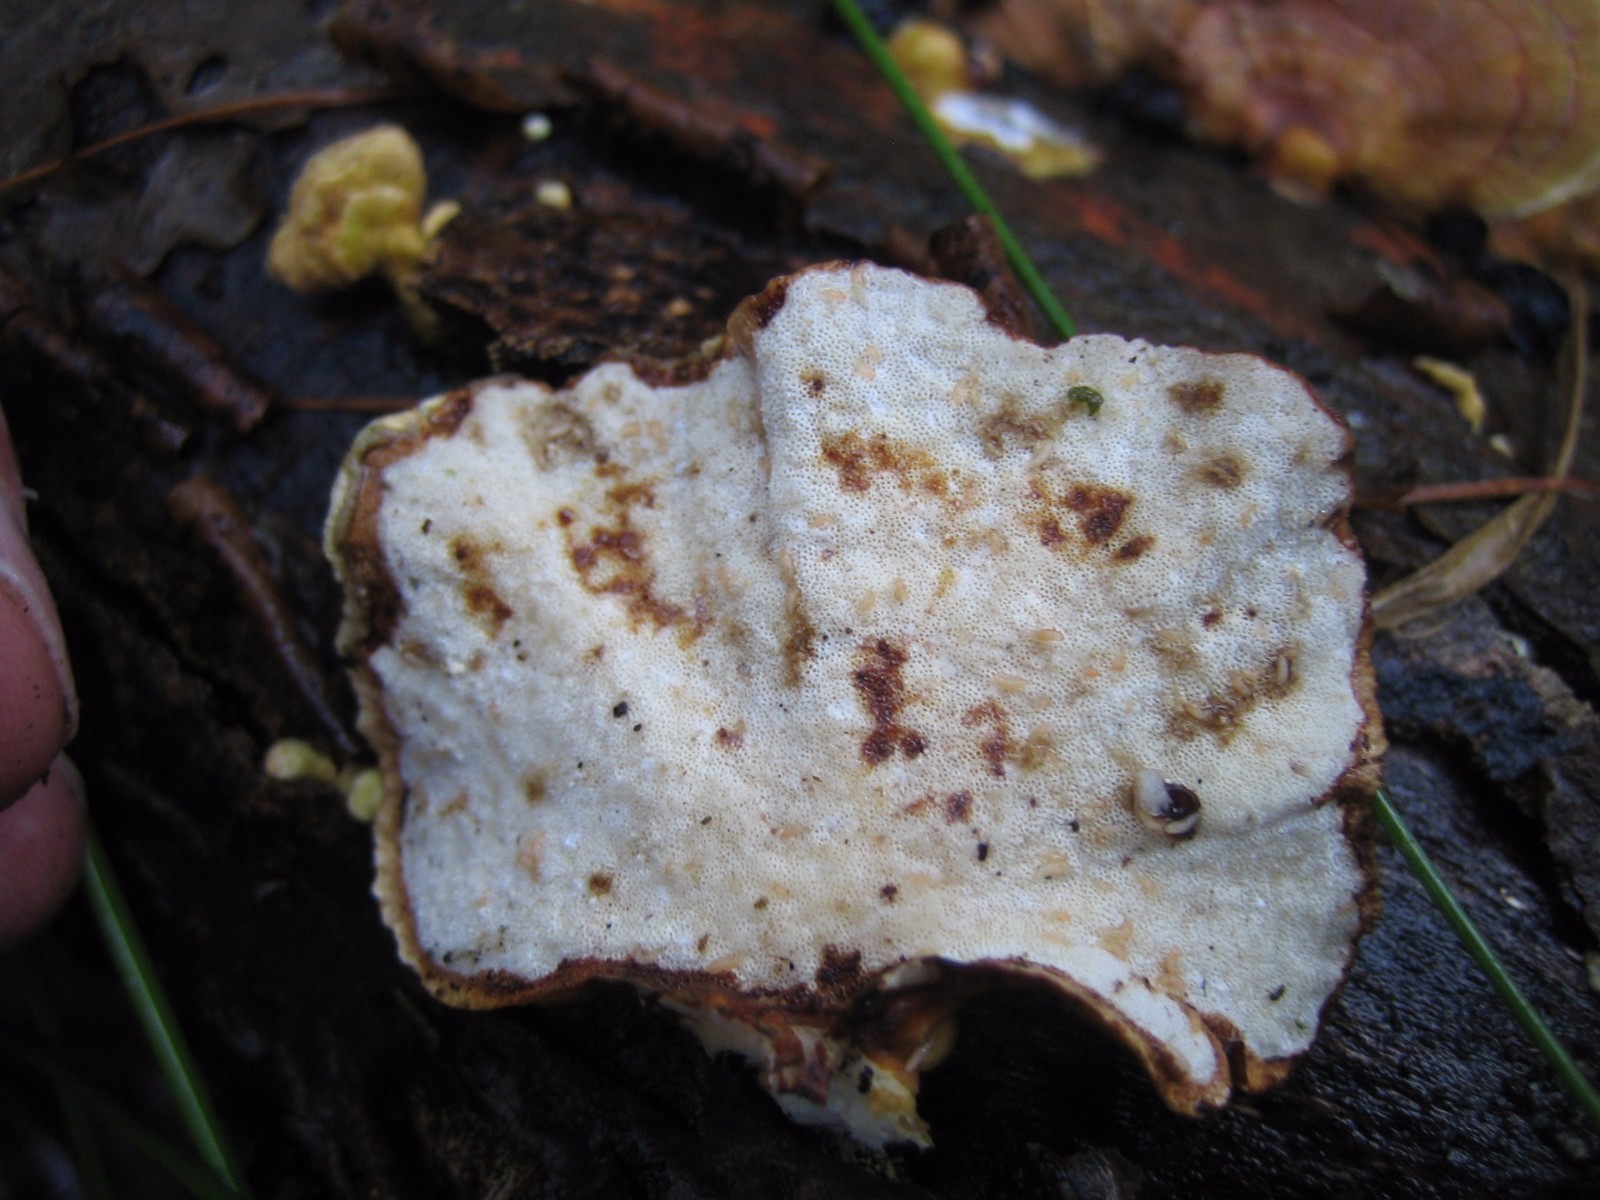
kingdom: Fungi
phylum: Basidiomycota
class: Agaricomycetes
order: Polyporales
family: Polyporaceae
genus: Trametes
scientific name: Trametes hirsuta
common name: håret læderporesvamp
